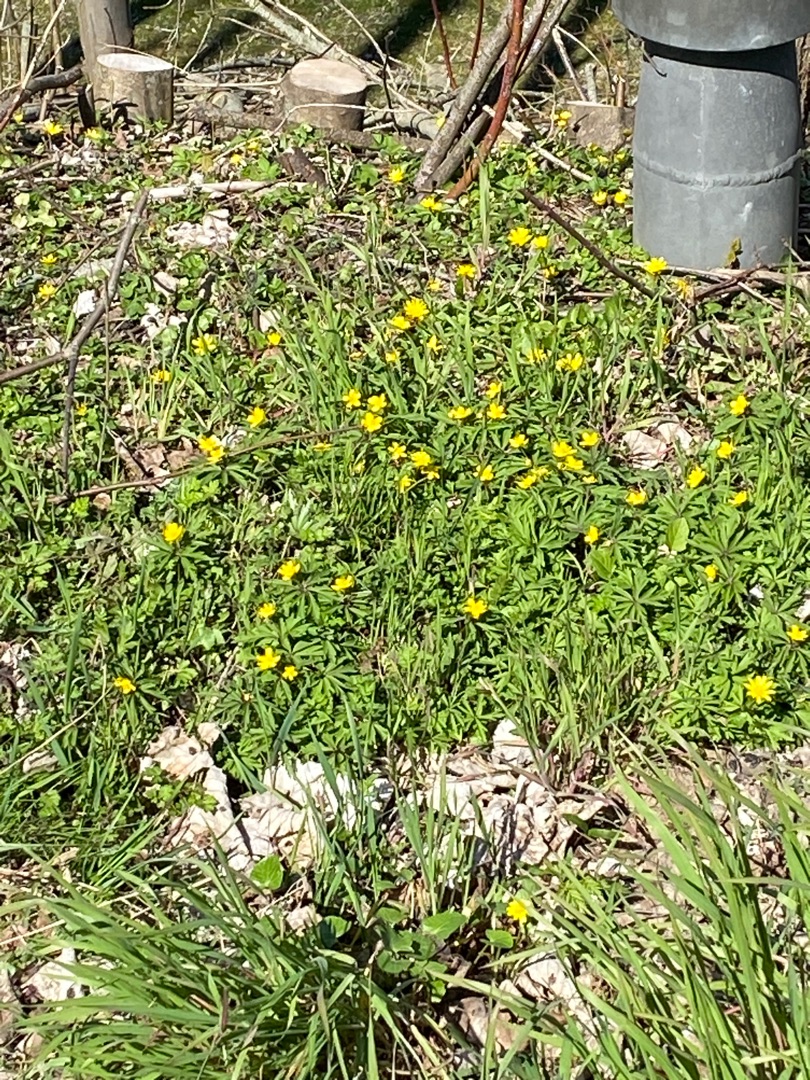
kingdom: Plantae
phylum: Tracheophyta
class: Magnoliopsida
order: Ranunculales
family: Ranunculaceae
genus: Anemone
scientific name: Anemone ranunculoides
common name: Gul anemone
